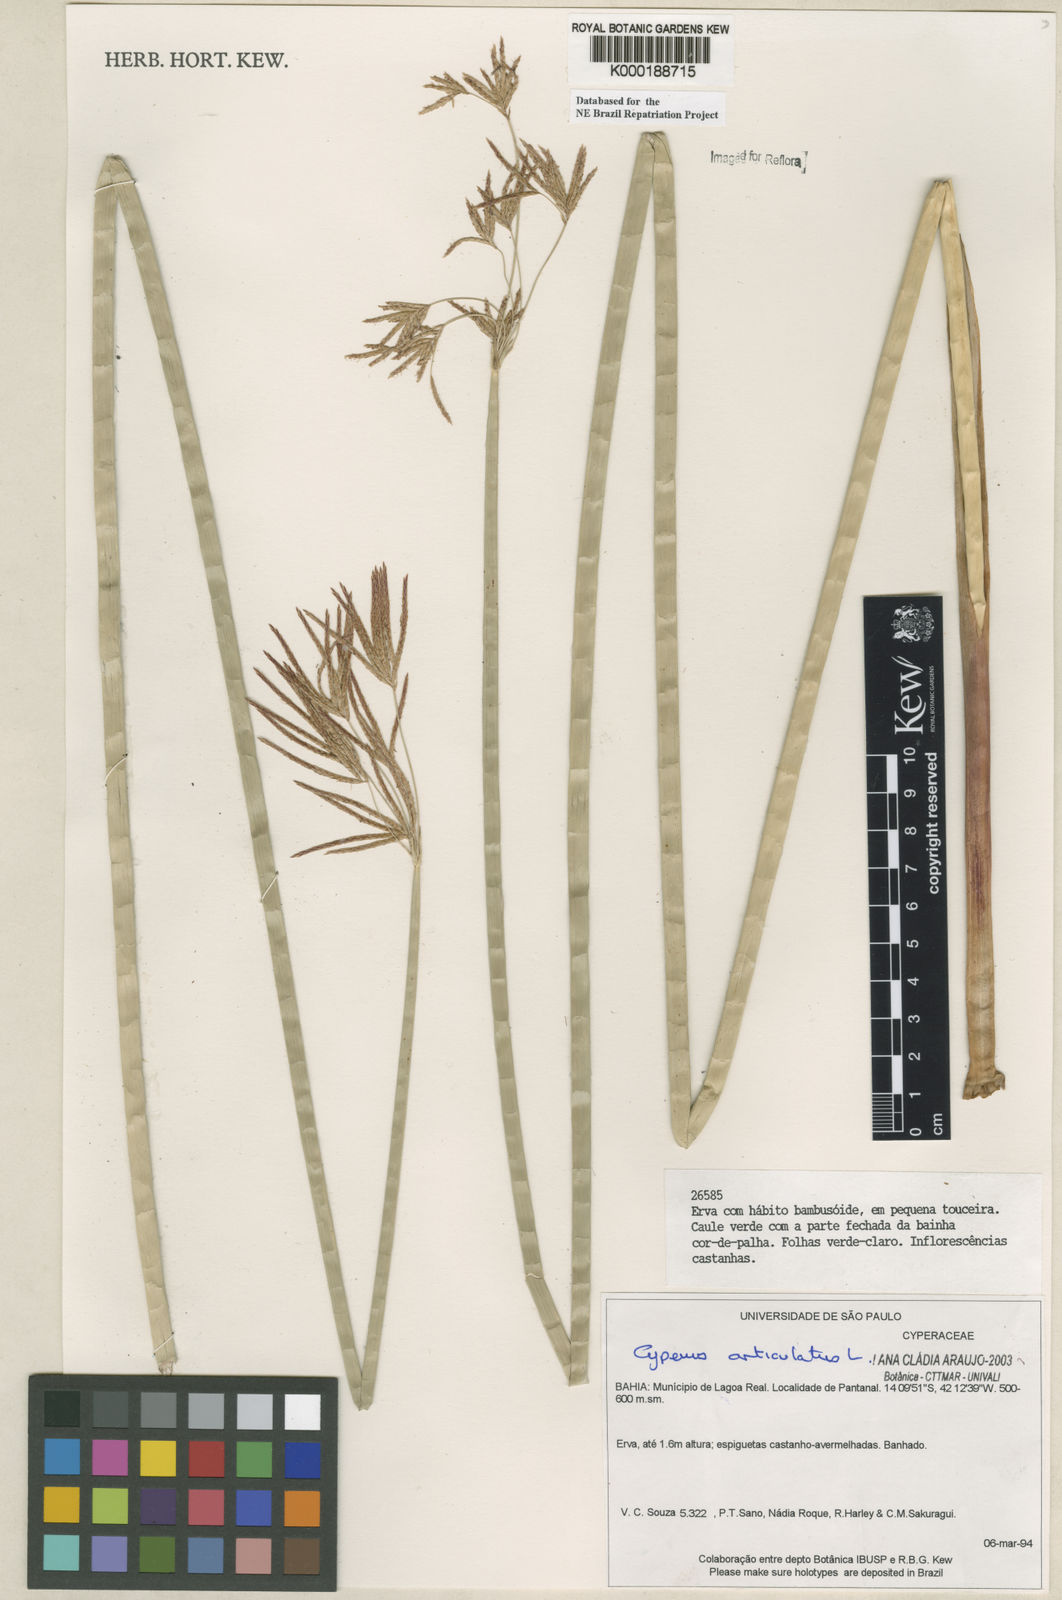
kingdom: Plantae
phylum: Tracheophyta
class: Liliopsida
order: Poales
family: Cyperaceae
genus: Cyperus
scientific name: Cyperus articulatus
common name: Jointed flatsedge
